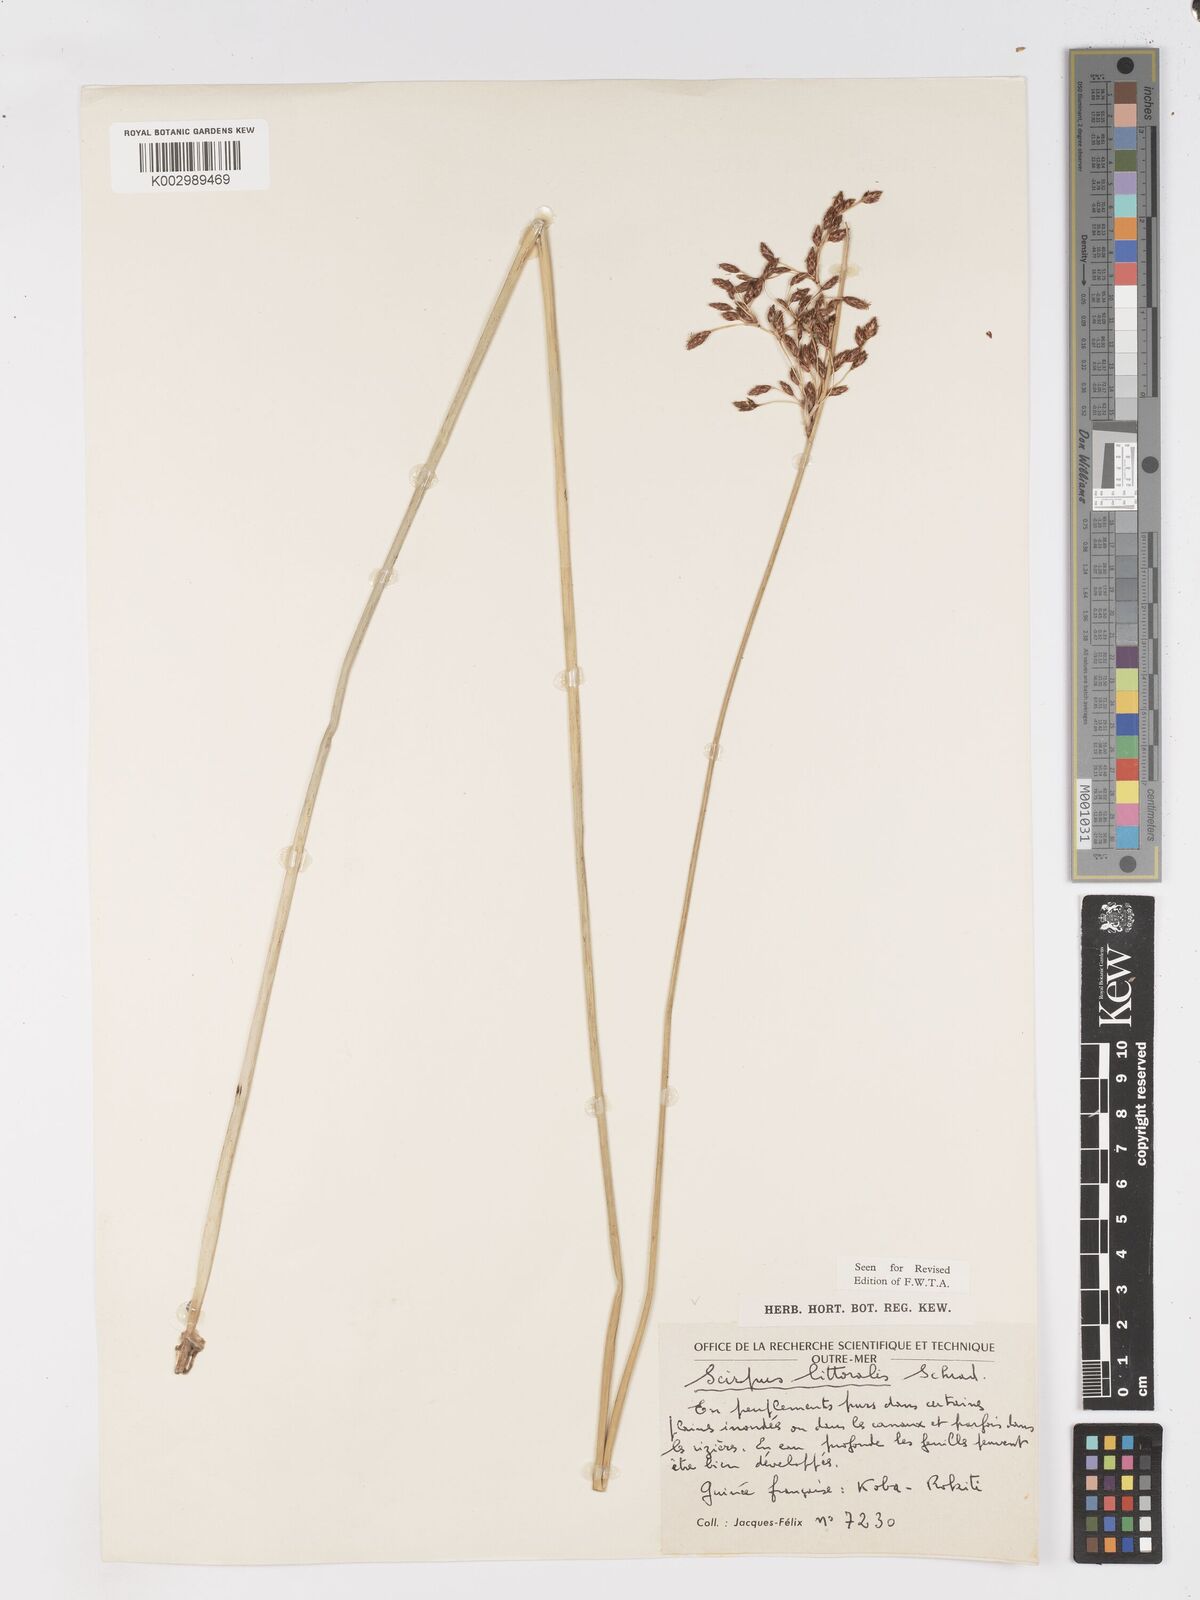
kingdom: Plantae
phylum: Tracheophyta
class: Liliopsida
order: Poales
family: Cyperaceae
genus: Schoenoplectus
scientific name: Schoenoplectus litoralis
